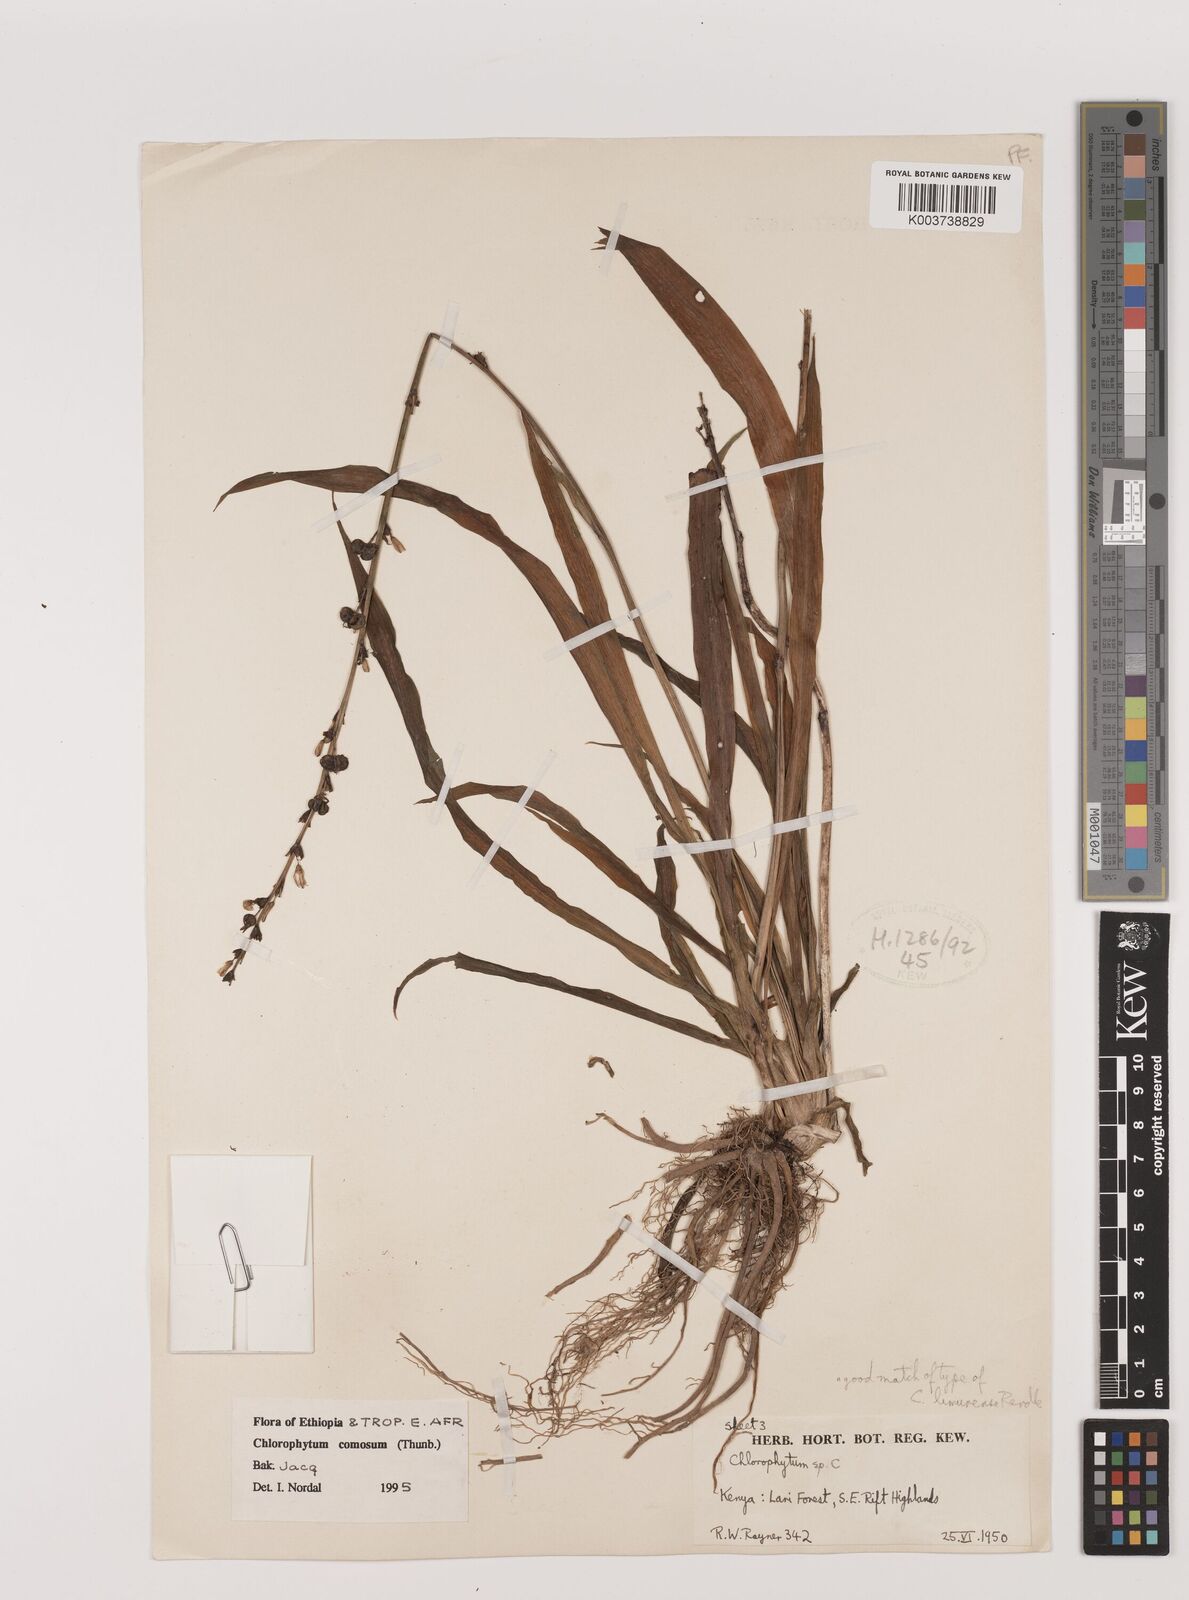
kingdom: Plantae
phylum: Tracheophyta
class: Liliopsida
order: Asparagales
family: Asparagaceae
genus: Chlorophytum
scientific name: Chlorophytum comosum
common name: Spider plant
